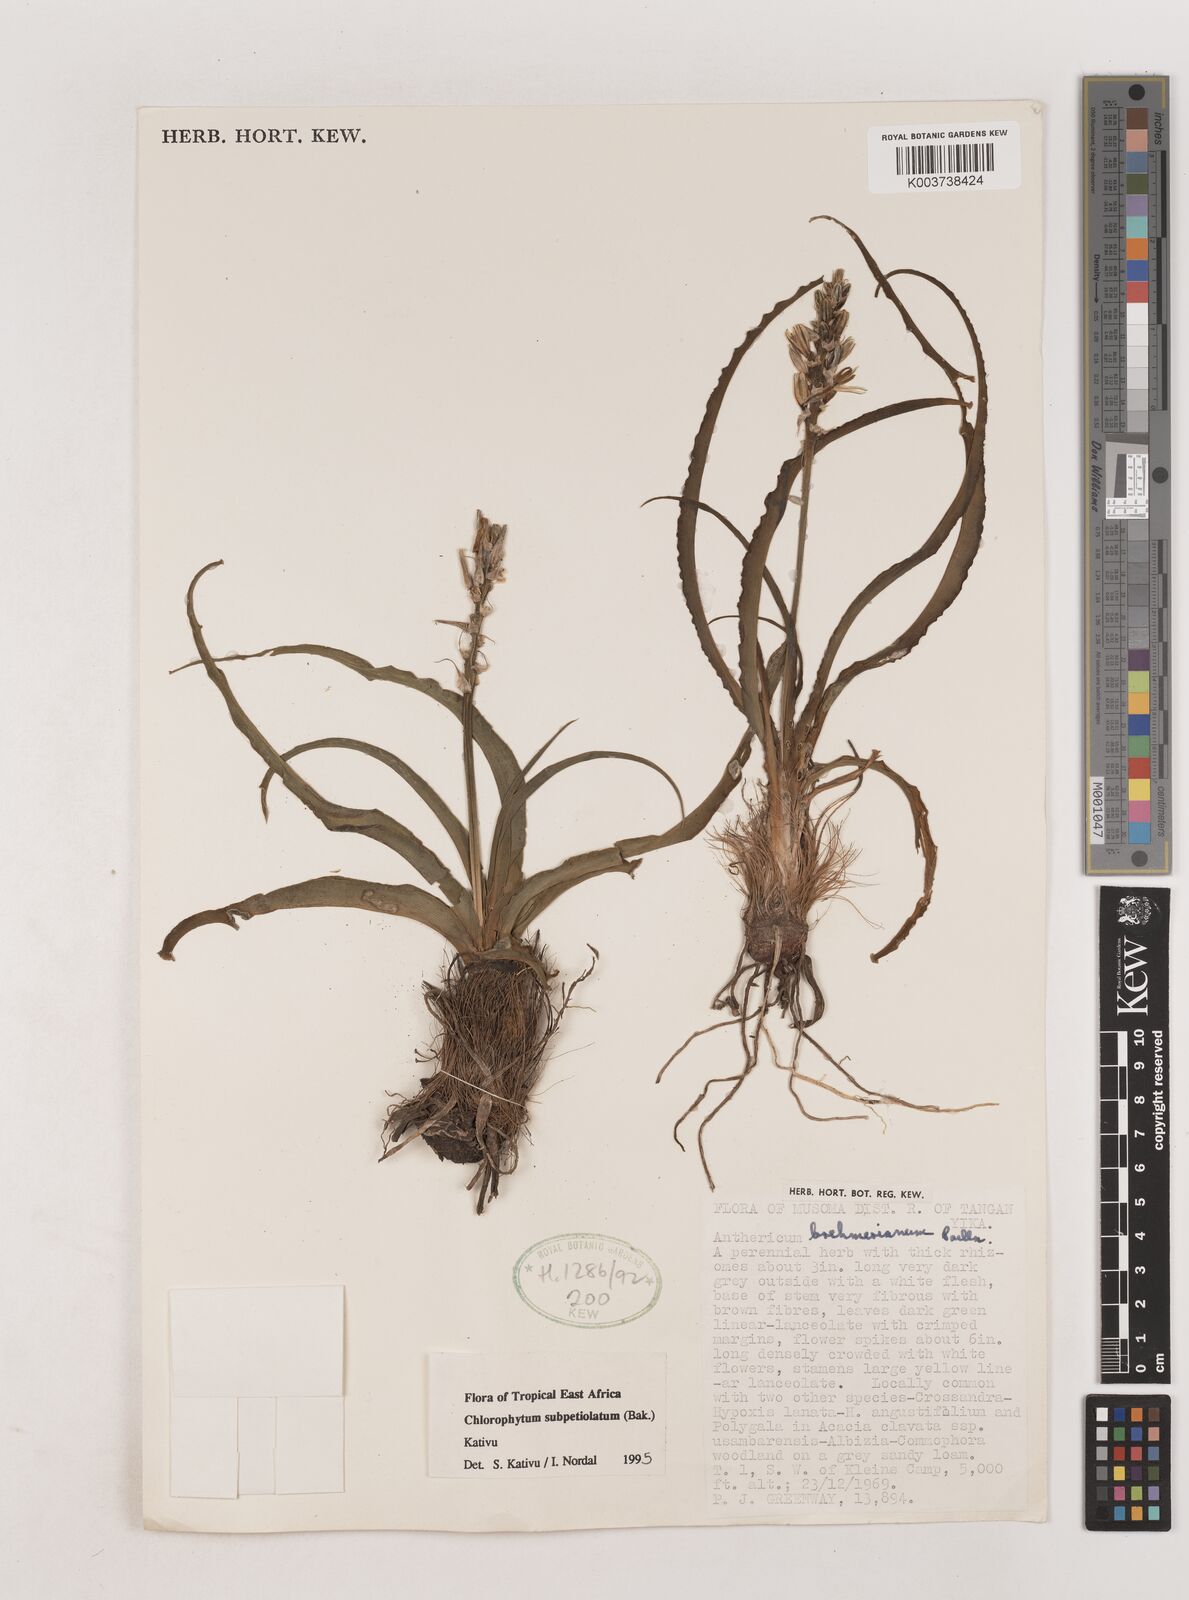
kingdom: Plantae
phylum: Tracheophyta
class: Liliopsida
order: Asparagales
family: Asparagaceae
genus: Chlorophytum
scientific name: Chlorophytum subpetiolatum
